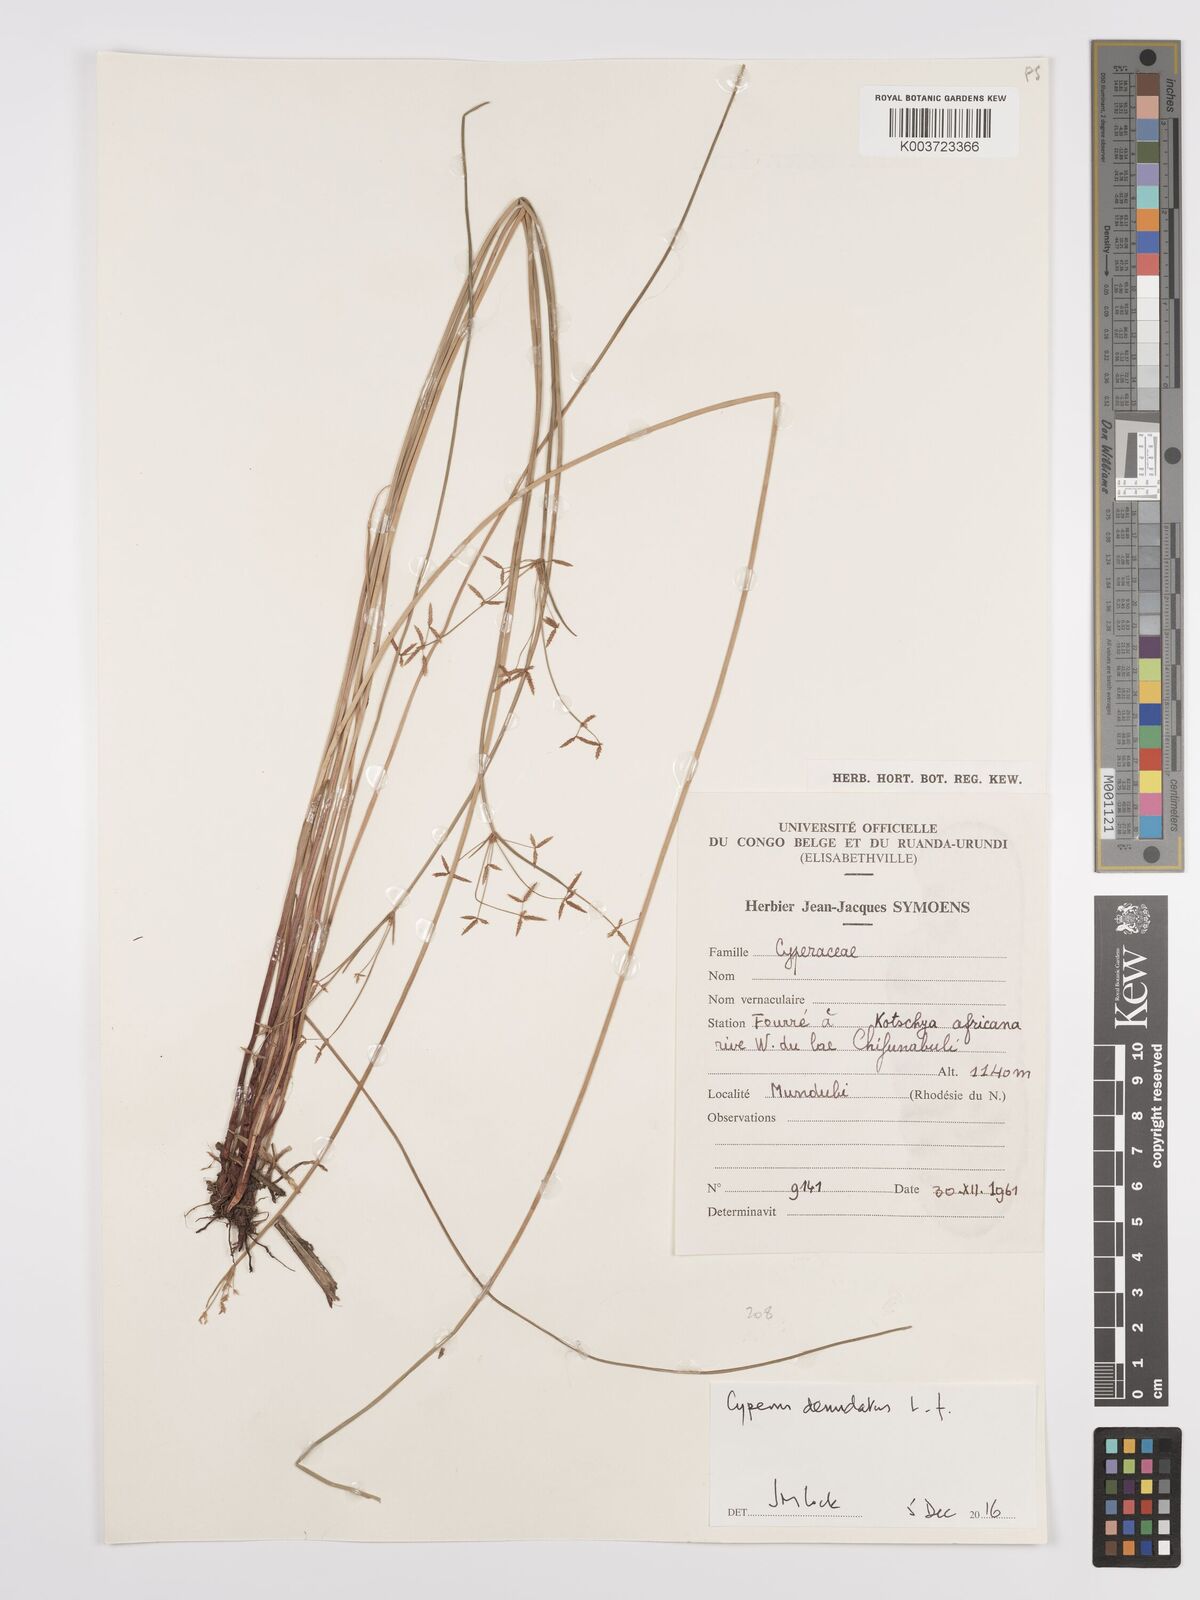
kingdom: Plantae
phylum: Tracheophyta
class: Liliopsida
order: Poales
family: Cyperaceae
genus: Cyperus
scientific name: Cyperus denudatus
